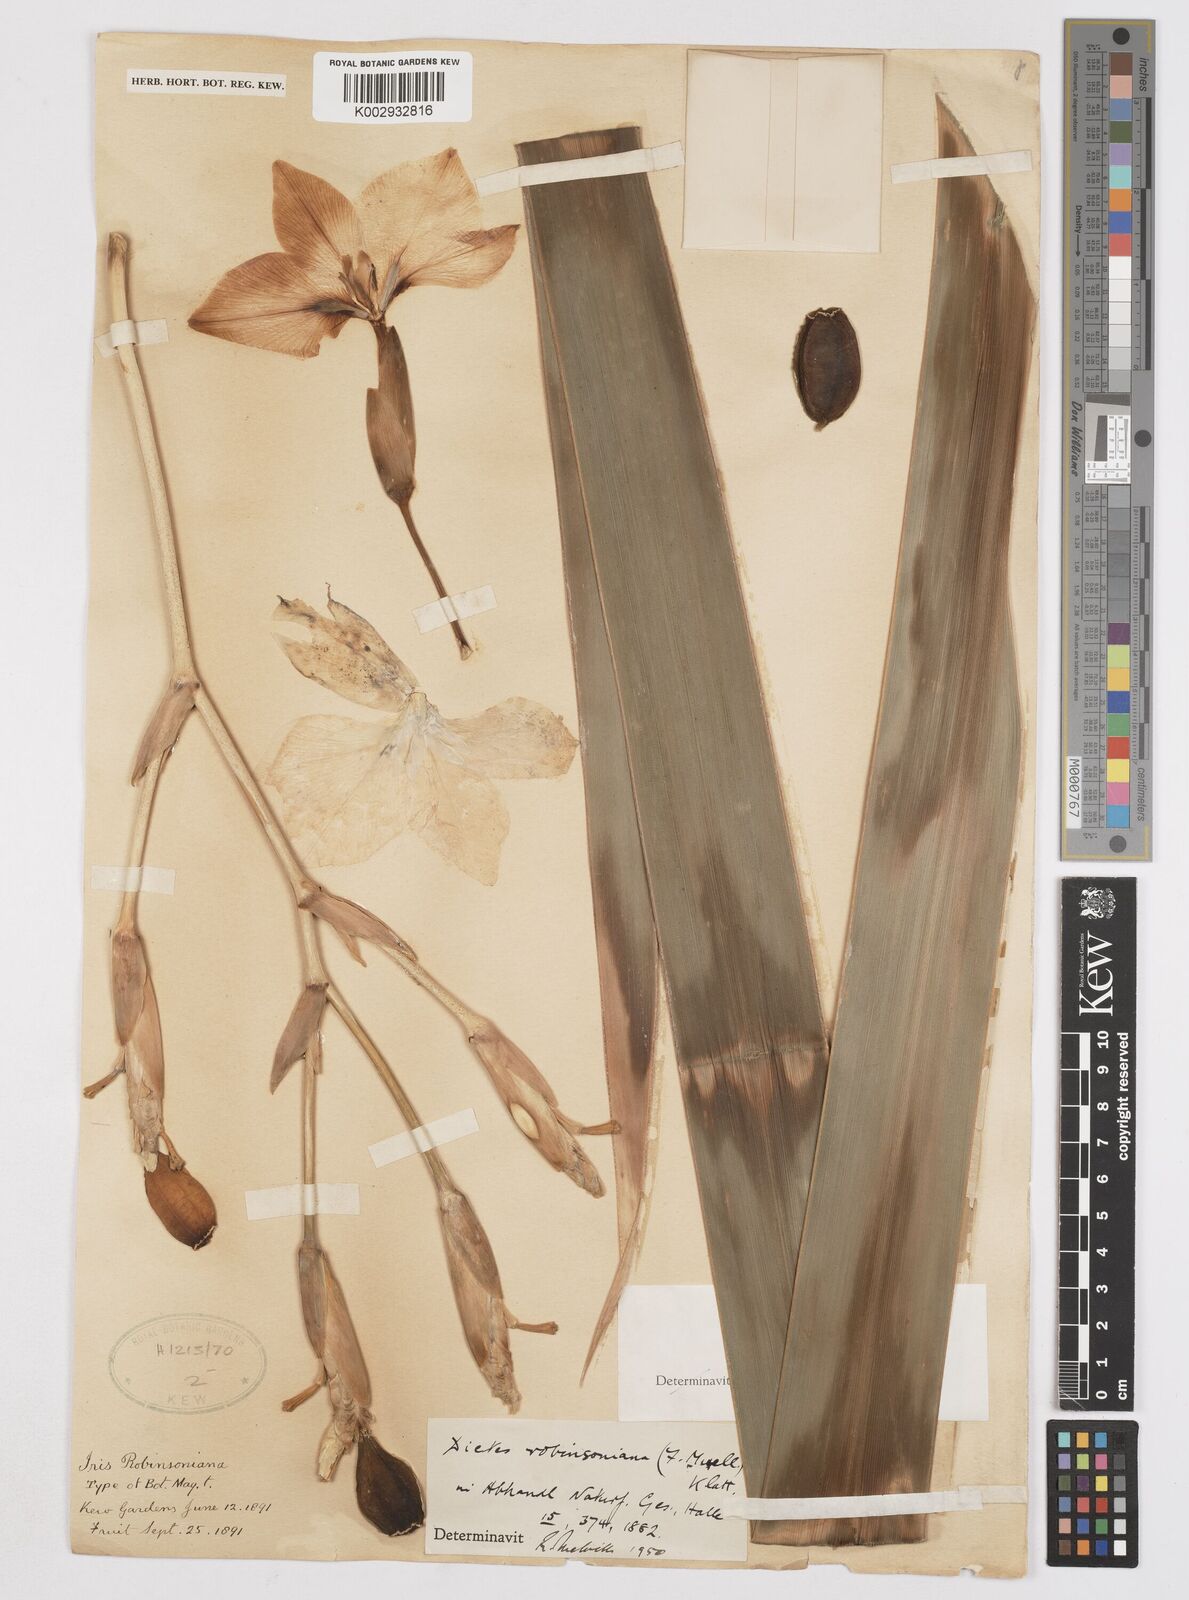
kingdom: Plantae
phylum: Tracheophyta
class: Liliopsida
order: Asparagales
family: Iridaceae
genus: Dietes
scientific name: Dietes robinsoniana
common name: Wedding-lily
